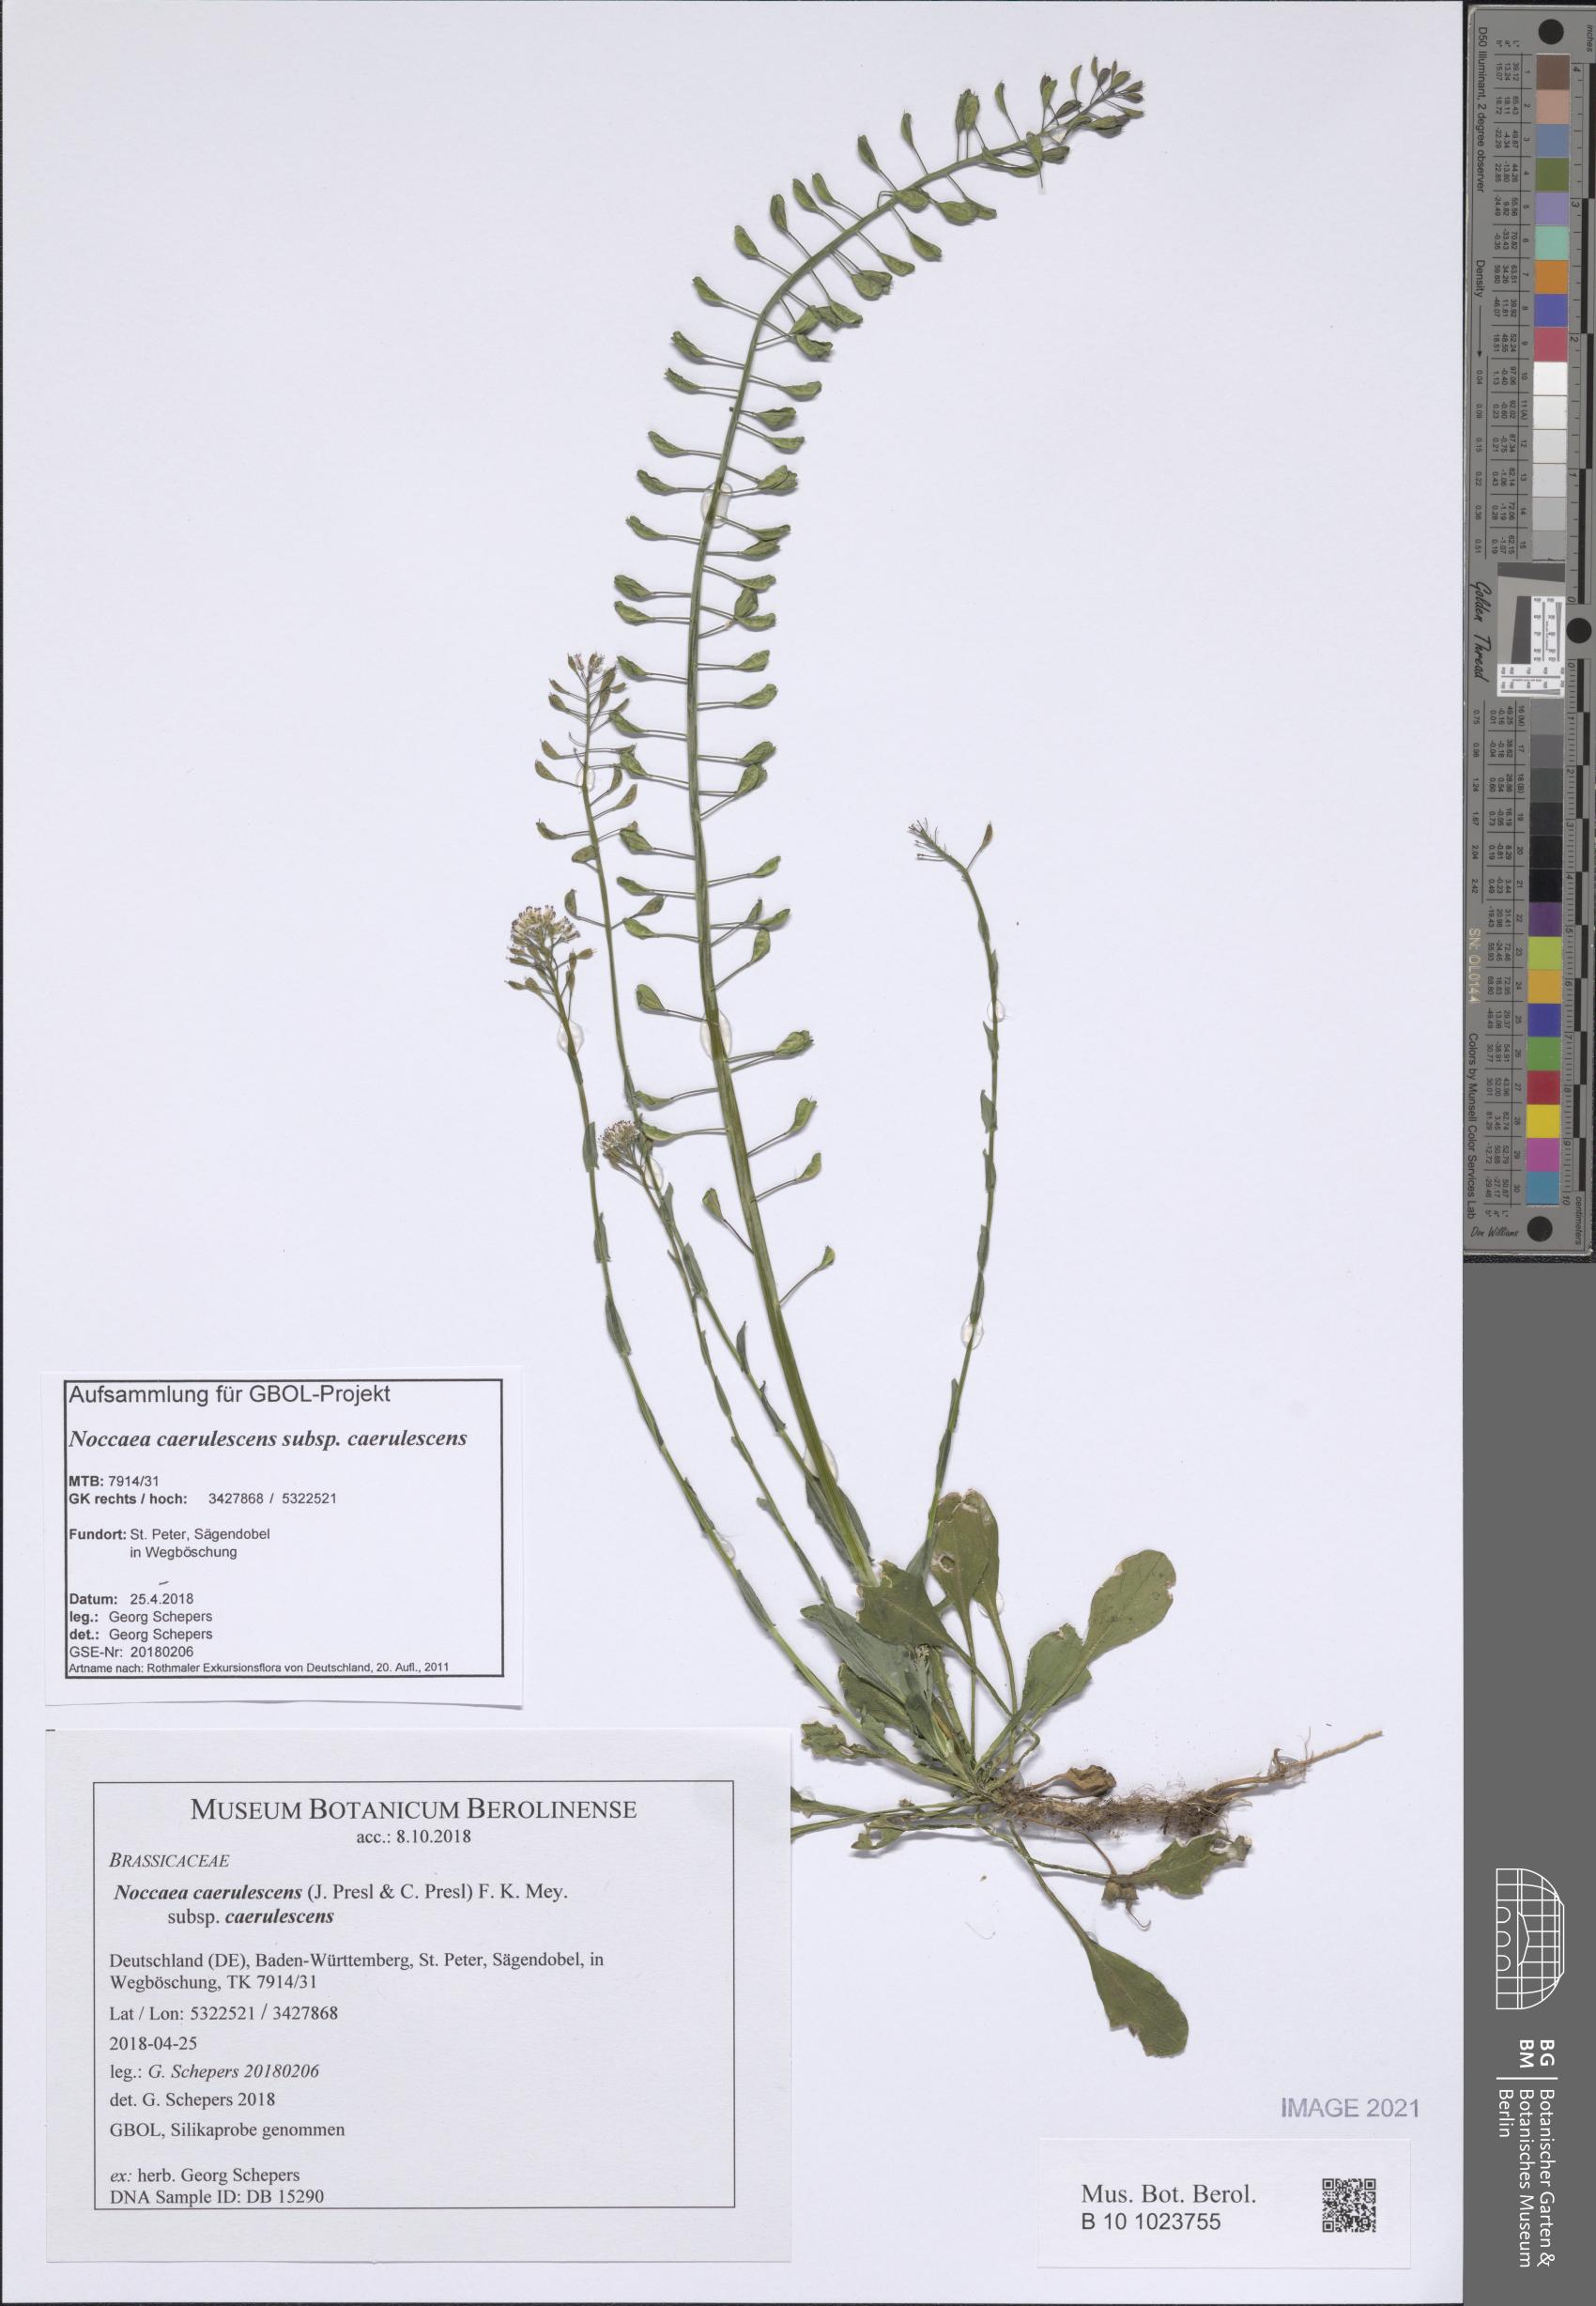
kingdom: Plantae
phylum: Tracheophyta
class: Magnoliopsida
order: Brassicales
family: Brassicaceae
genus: Noccaea
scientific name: Noccaea caerulescens
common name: Alpine pennycress
